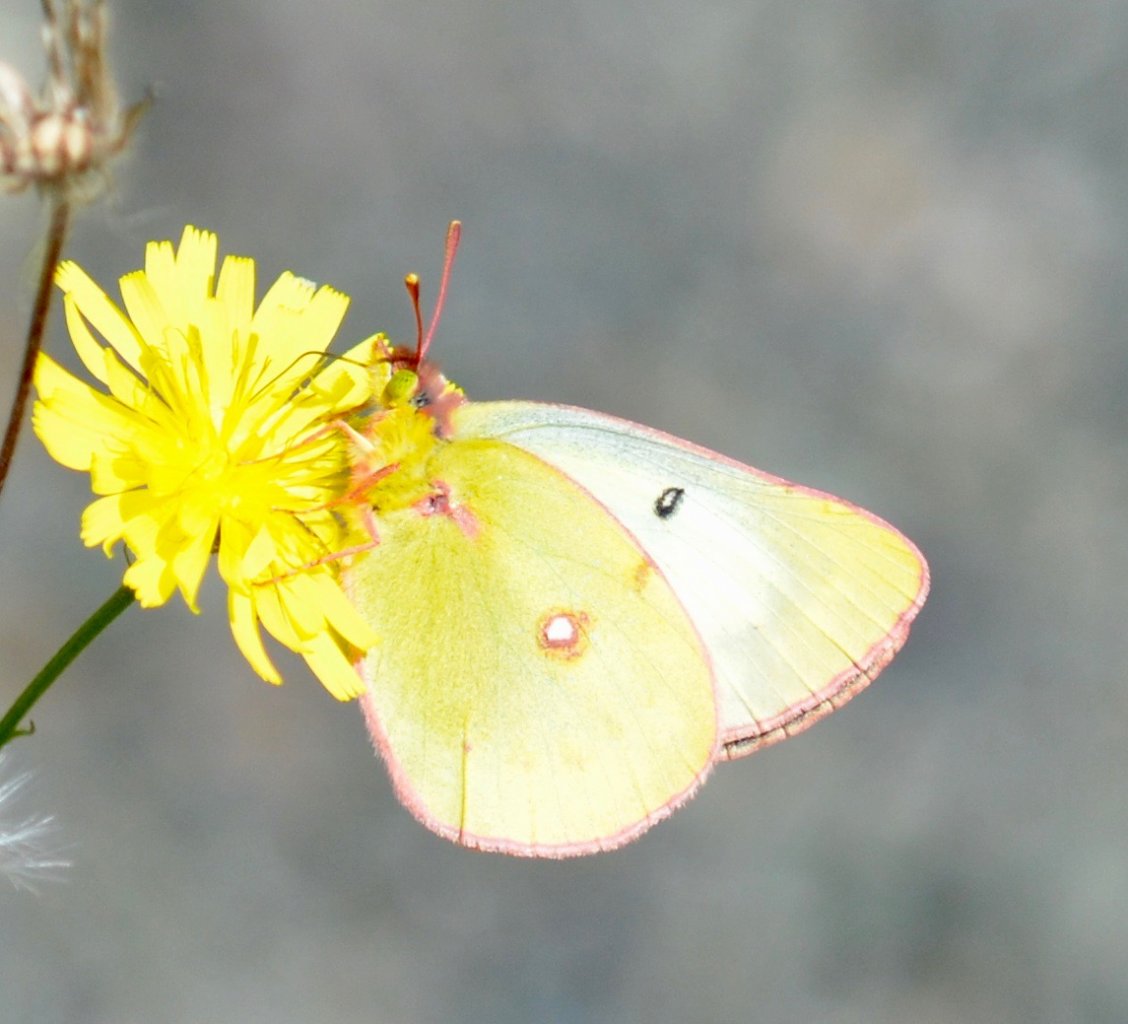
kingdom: Animalia
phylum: Arthropoda
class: Insecta
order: Lepidoptera
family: Pieridae
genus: Colias
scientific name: Colias philodice
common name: Clouded Sulphur
